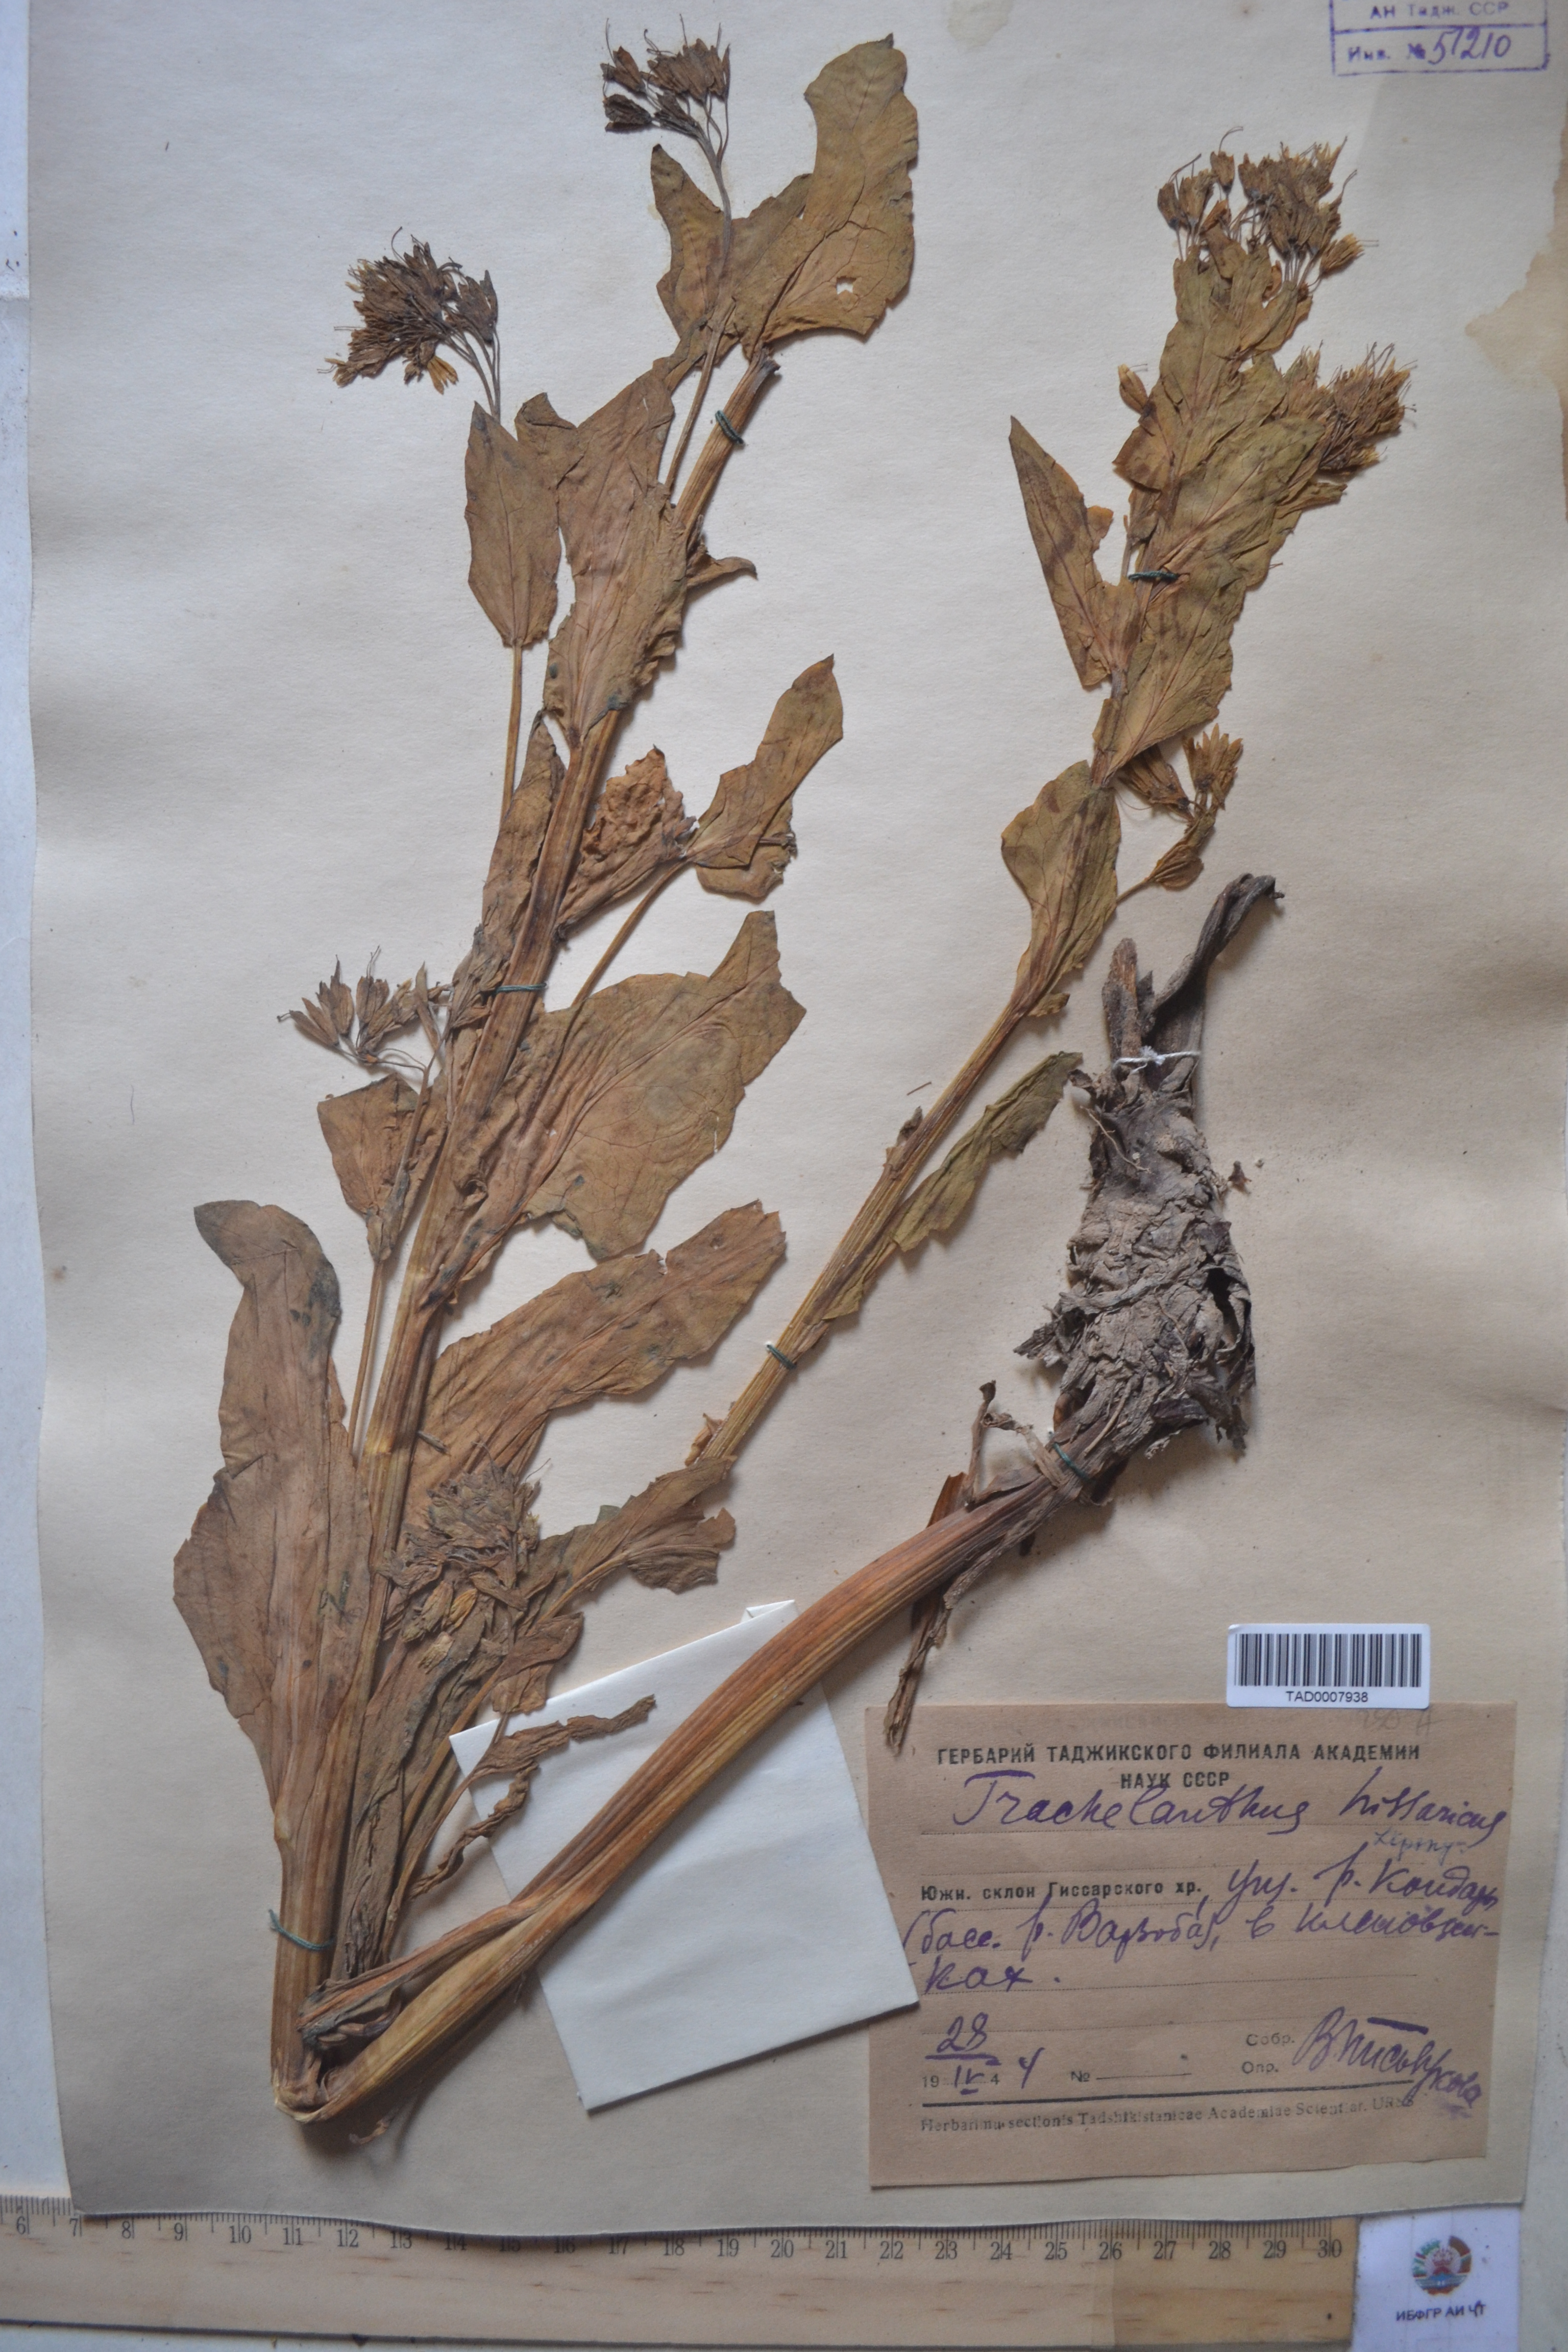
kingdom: Plantae
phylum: Tracheophyta
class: Magnoliopsida
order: Boraginales
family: Boraginaceae
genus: Lindelofia
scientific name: Lindelofia hissarica
